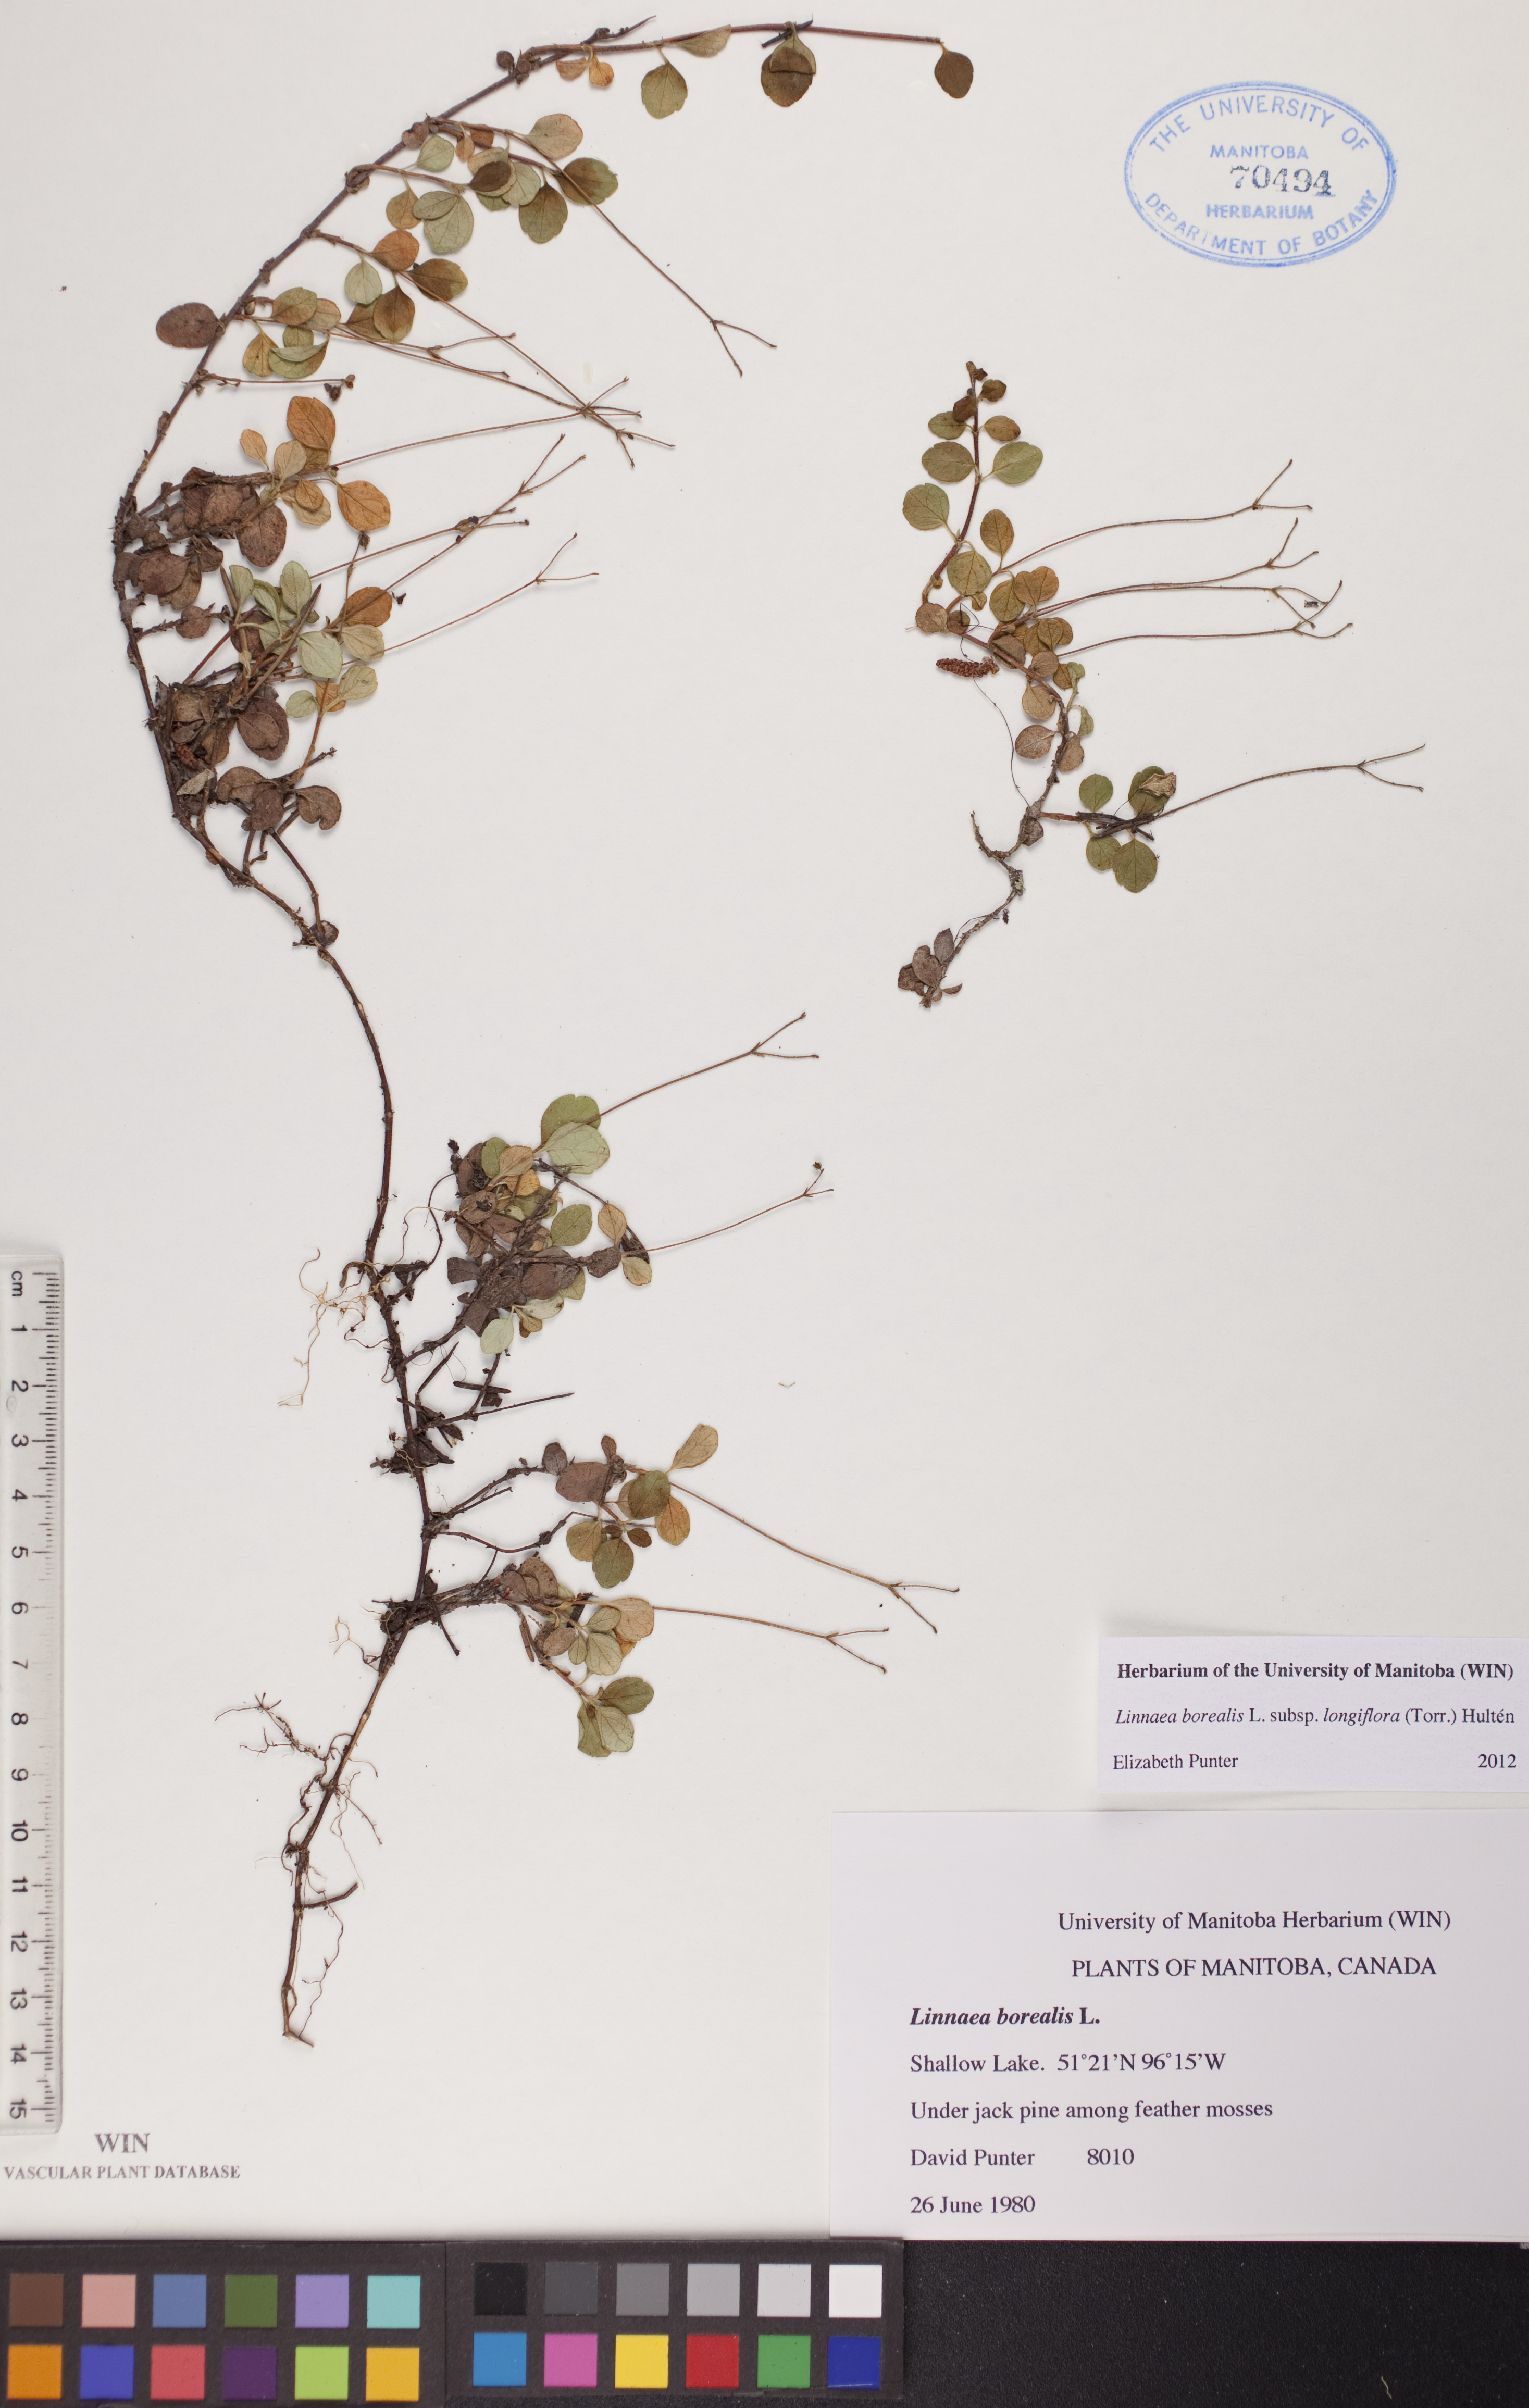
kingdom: Plantae
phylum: Tracheophyta
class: Magnoliopsida
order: Dipsacales
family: Caprifoliaceae
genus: Linnaea
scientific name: Linnaea borealis
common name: Twinflower
